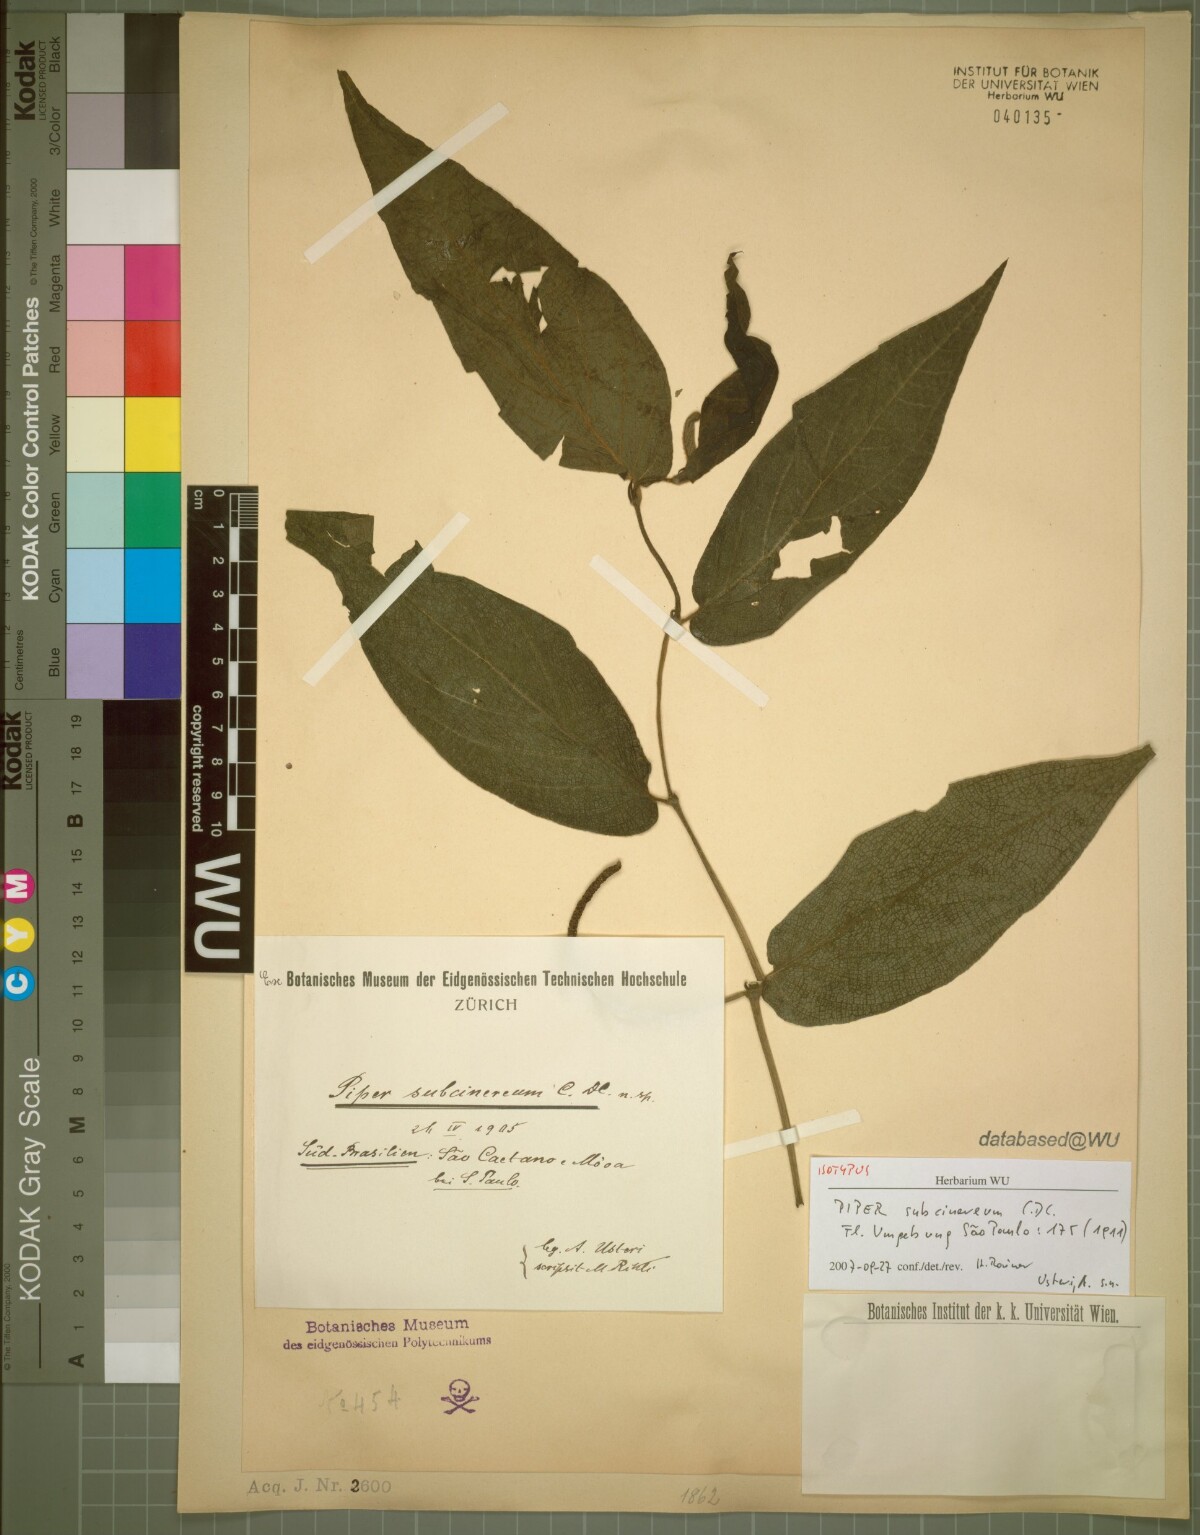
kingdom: Plantae
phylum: Tracheophyta
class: Magnoliopsida
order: Piperales
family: Piperaceae
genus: Piper
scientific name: Piper subcinereum
